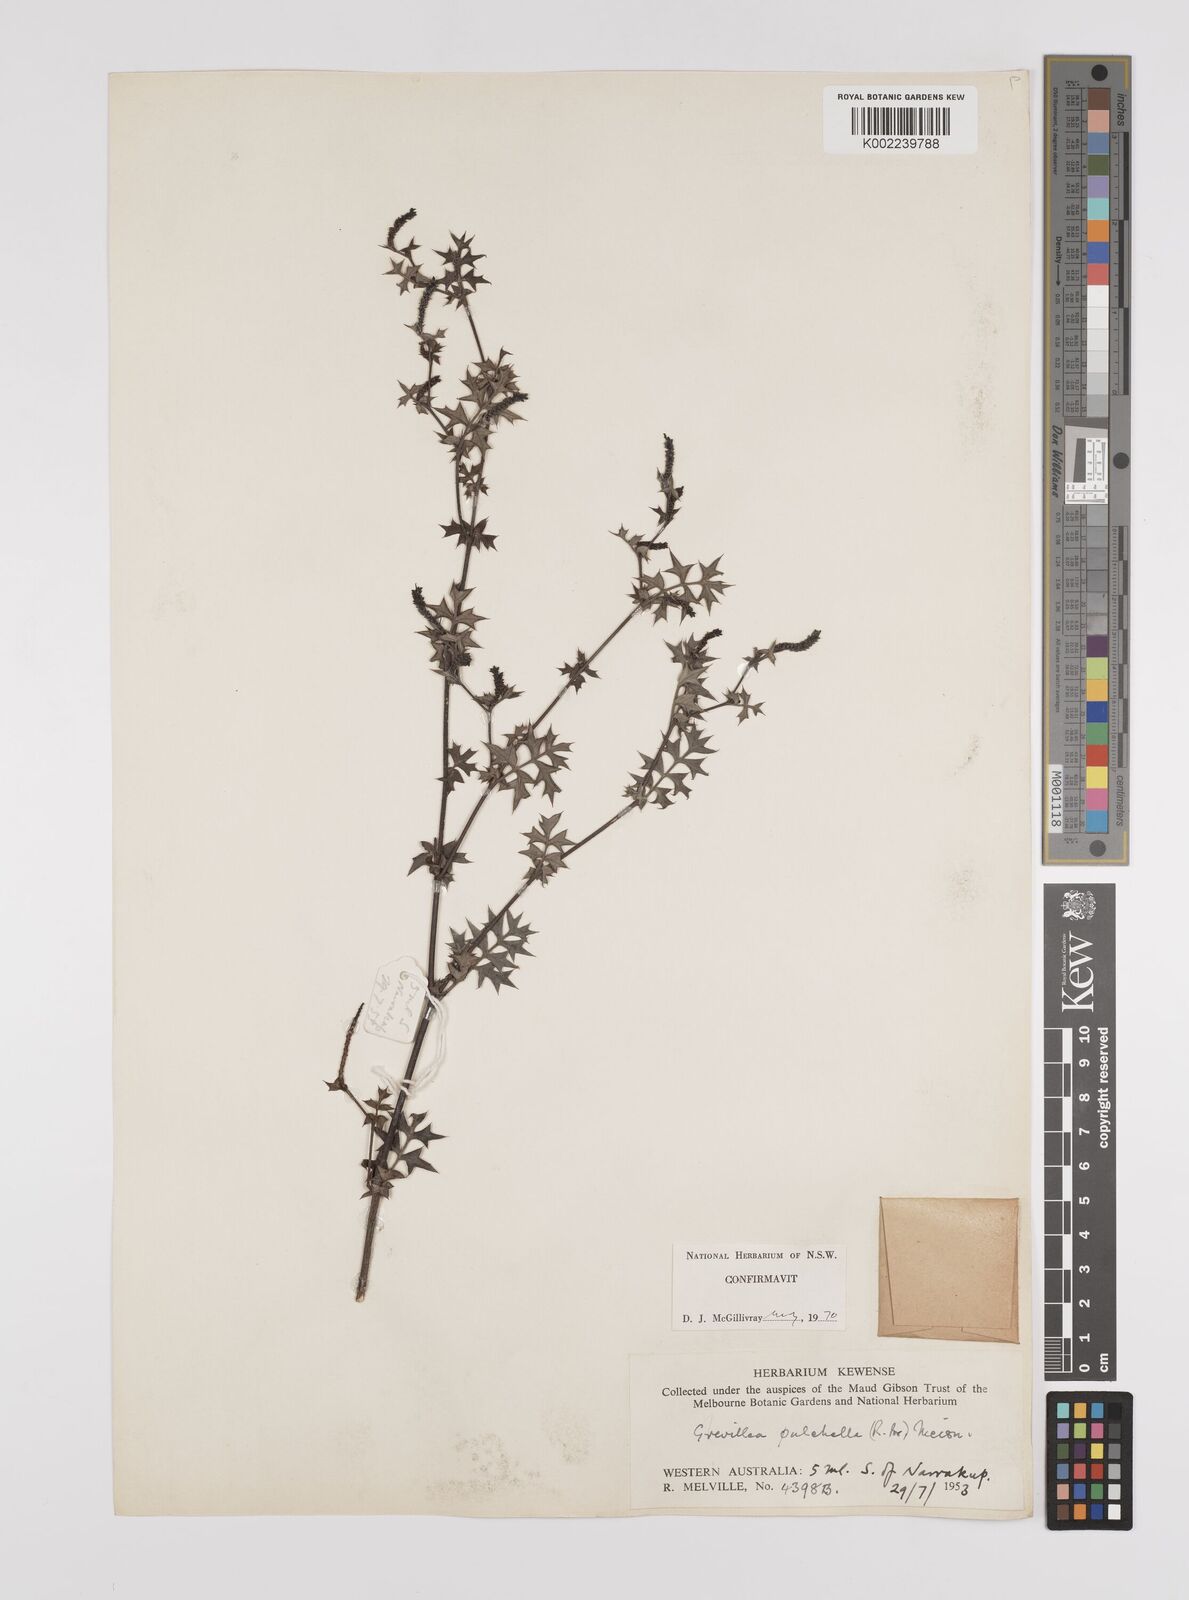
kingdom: Plantae
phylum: Tracheophyta
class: Magnoliopsida
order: Proteales
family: Proteaceae
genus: Grevillea
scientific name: Grevillea pulchella
